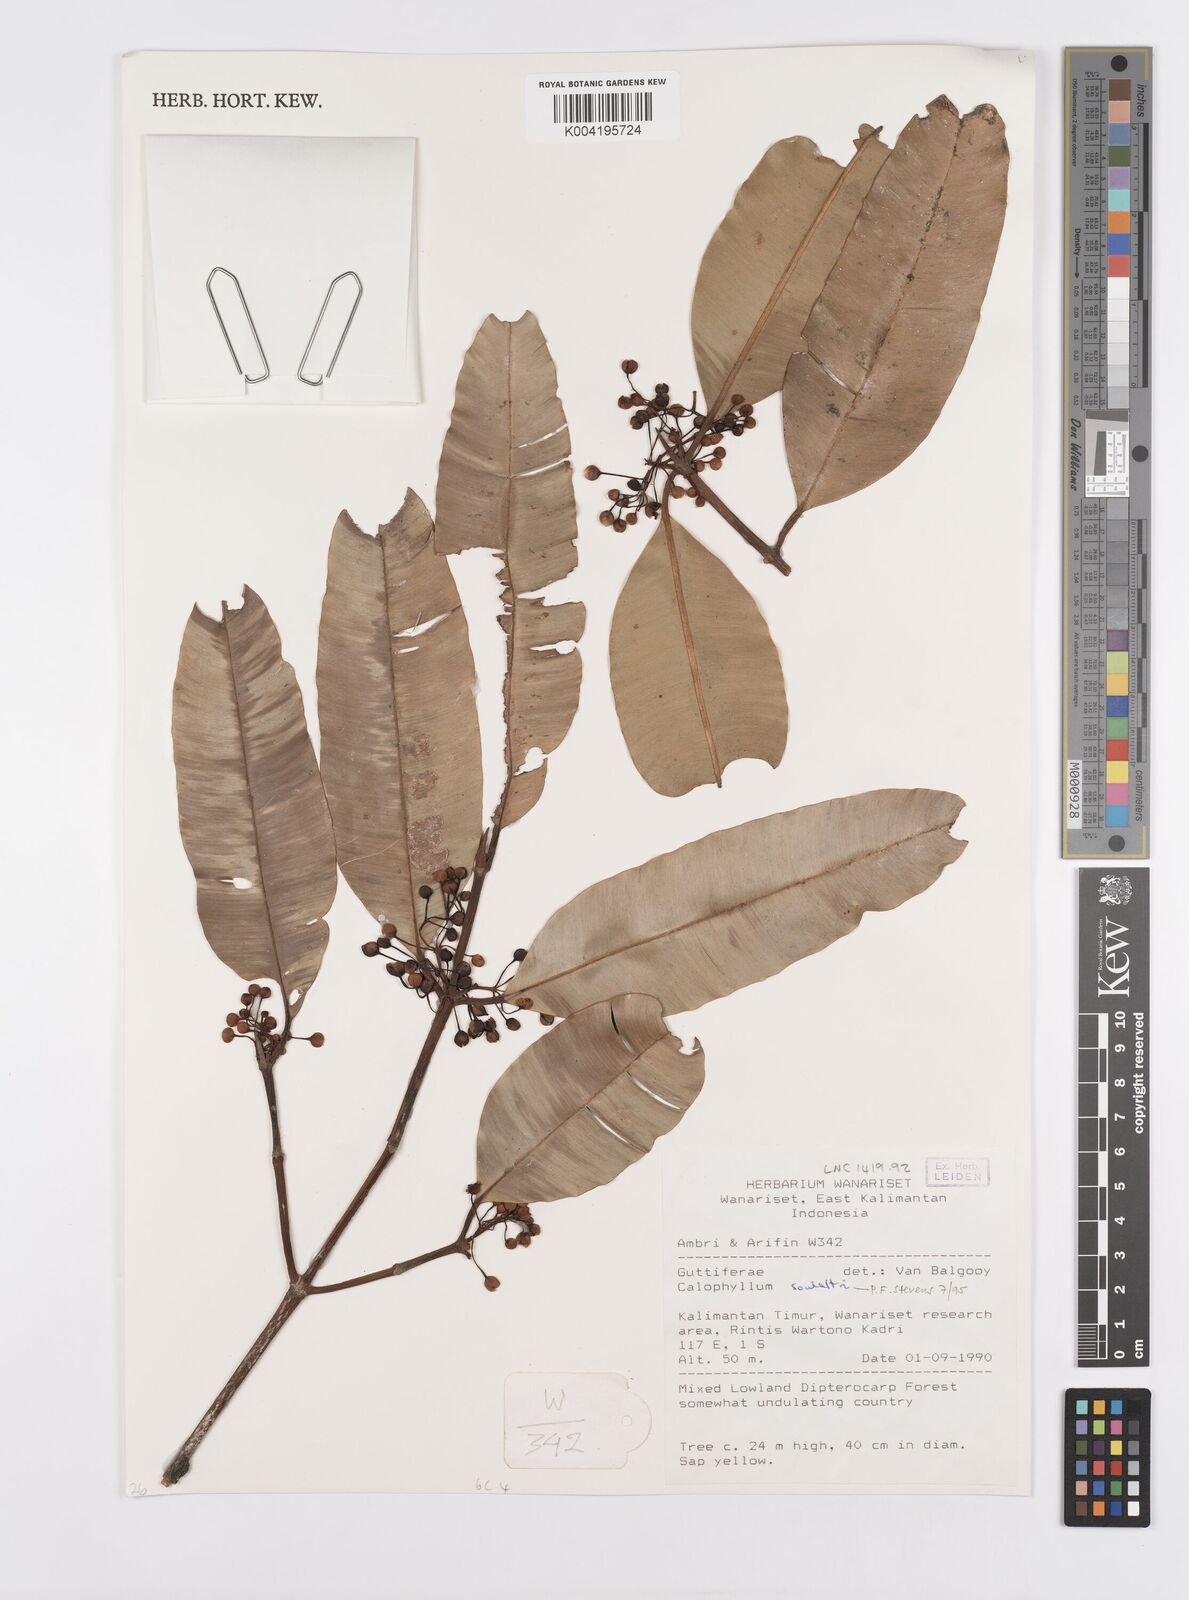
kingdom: Plantae
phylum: Tracheophyta
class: Magnoliopsida
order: Malpighiales
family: Calophyllaceae
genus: Calophyllum
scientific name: Calophyllum soulattri
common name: Bitangoor boonot
